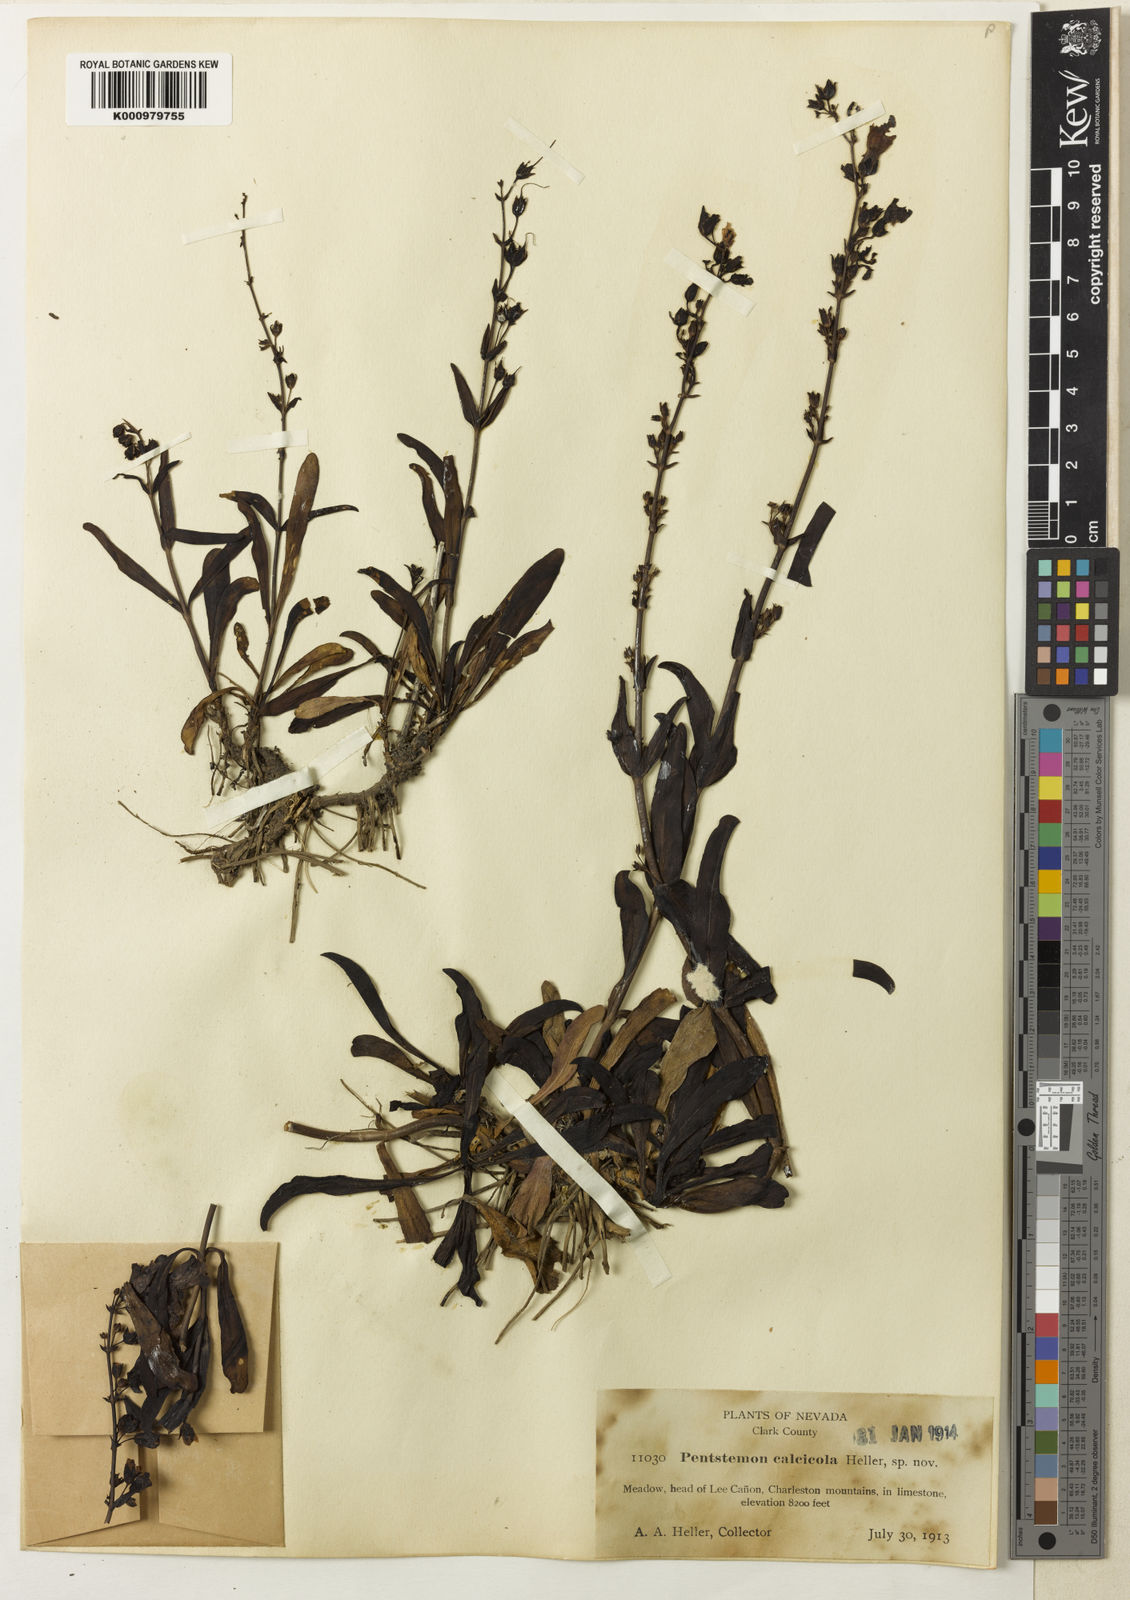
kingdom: Plantae
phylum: Tracheophyta
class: Magnoliopsida
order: Lamiales
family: Plantaginaceae
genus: Penstemon
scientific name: Penstemon
